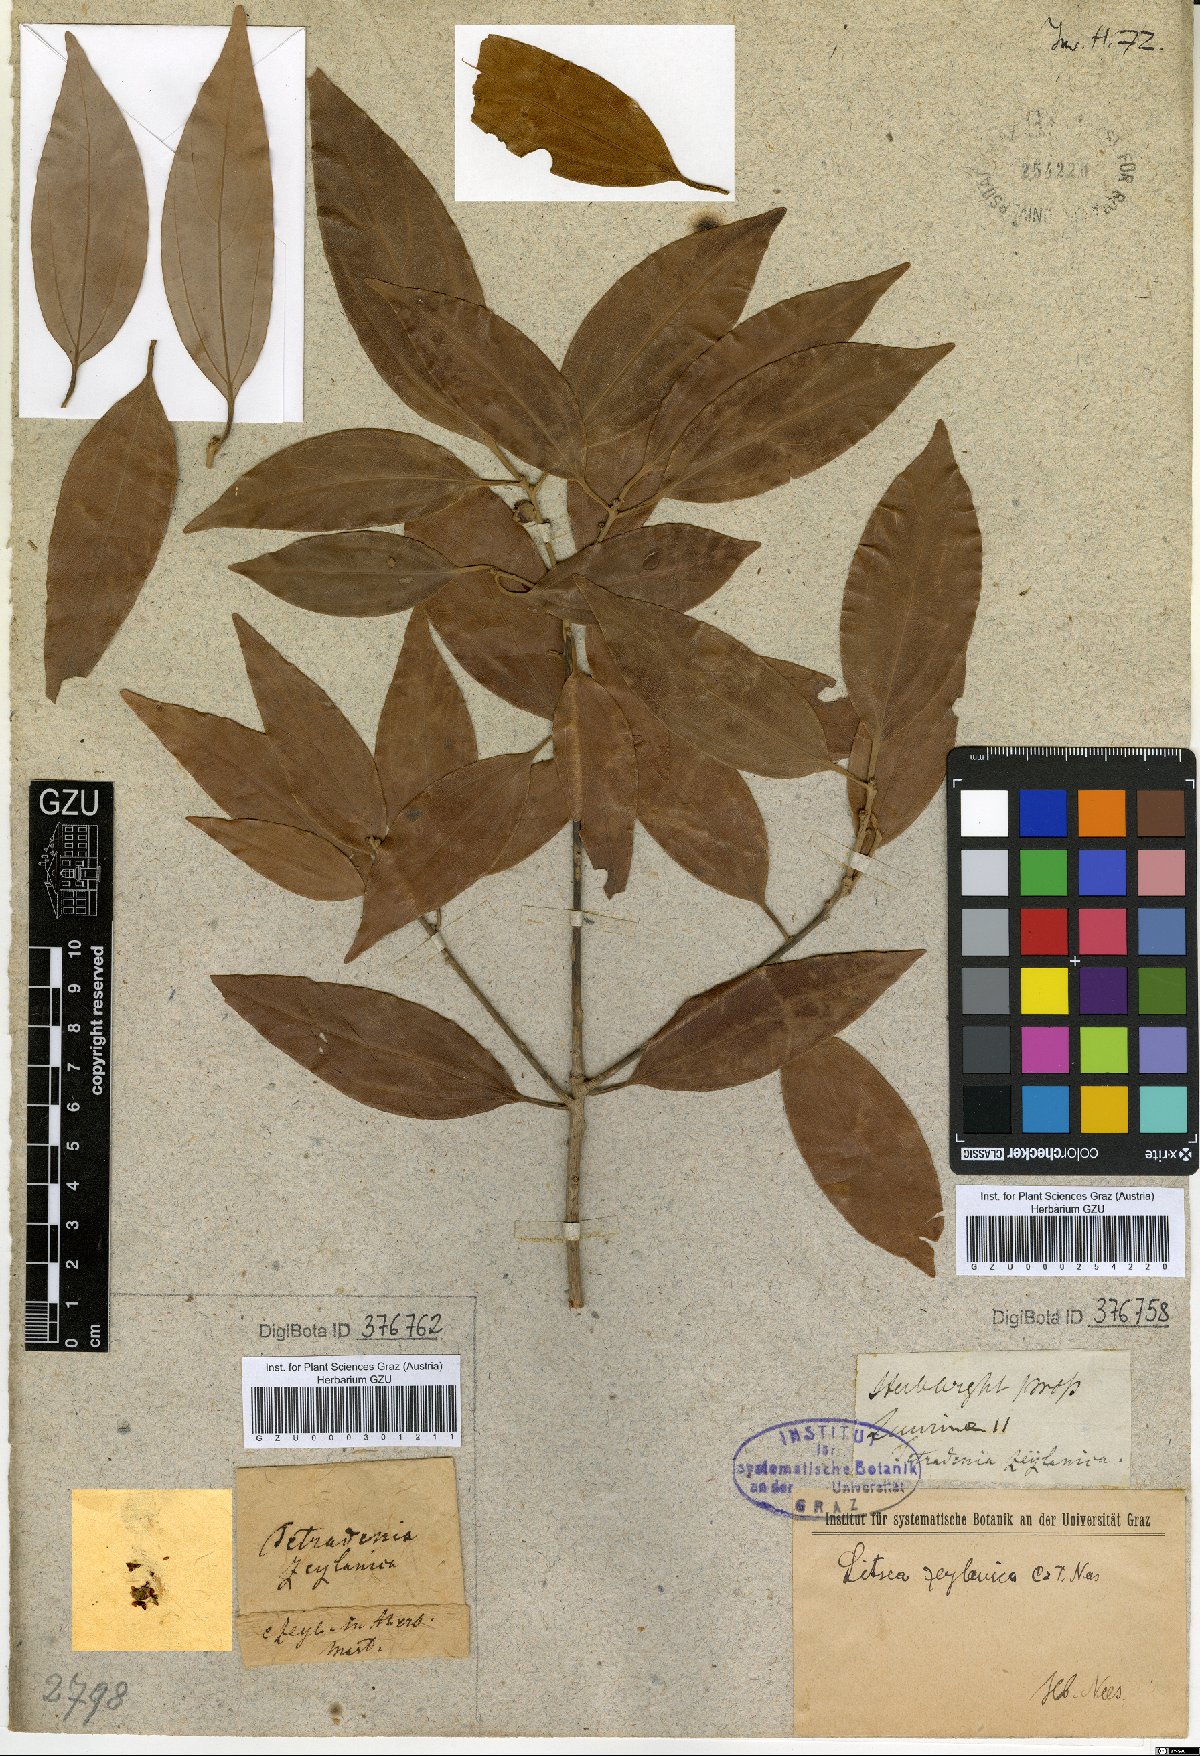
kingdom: Plantae
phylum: Tracheophyta
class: Magnoliopsida
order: Laurales
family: Lauraceae
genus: Neolitsea
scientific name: Neolitsea cassia
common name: Laurel
